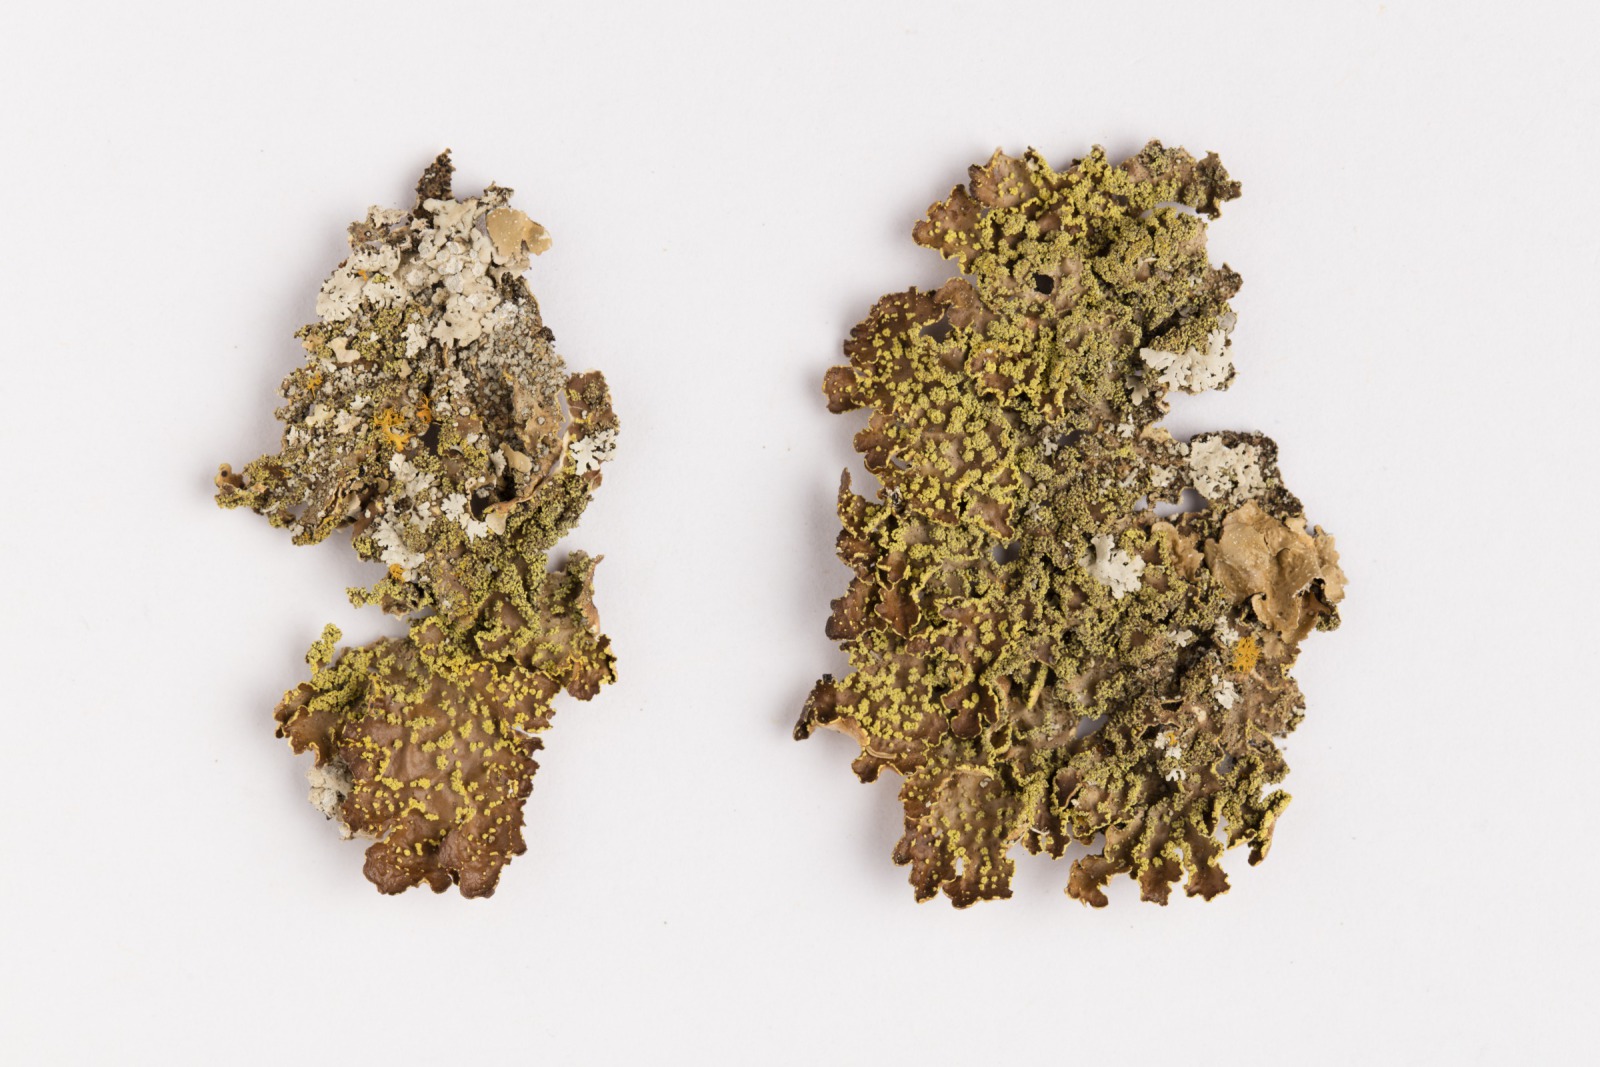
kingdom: Fungi
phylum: Ascomycota
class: Lecanoromycetes
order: Peltigerales
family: Lobariaceae
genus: Pseudocyphellaria
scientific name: Pseudocyphellaria crocata
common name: Golden specklebelly
